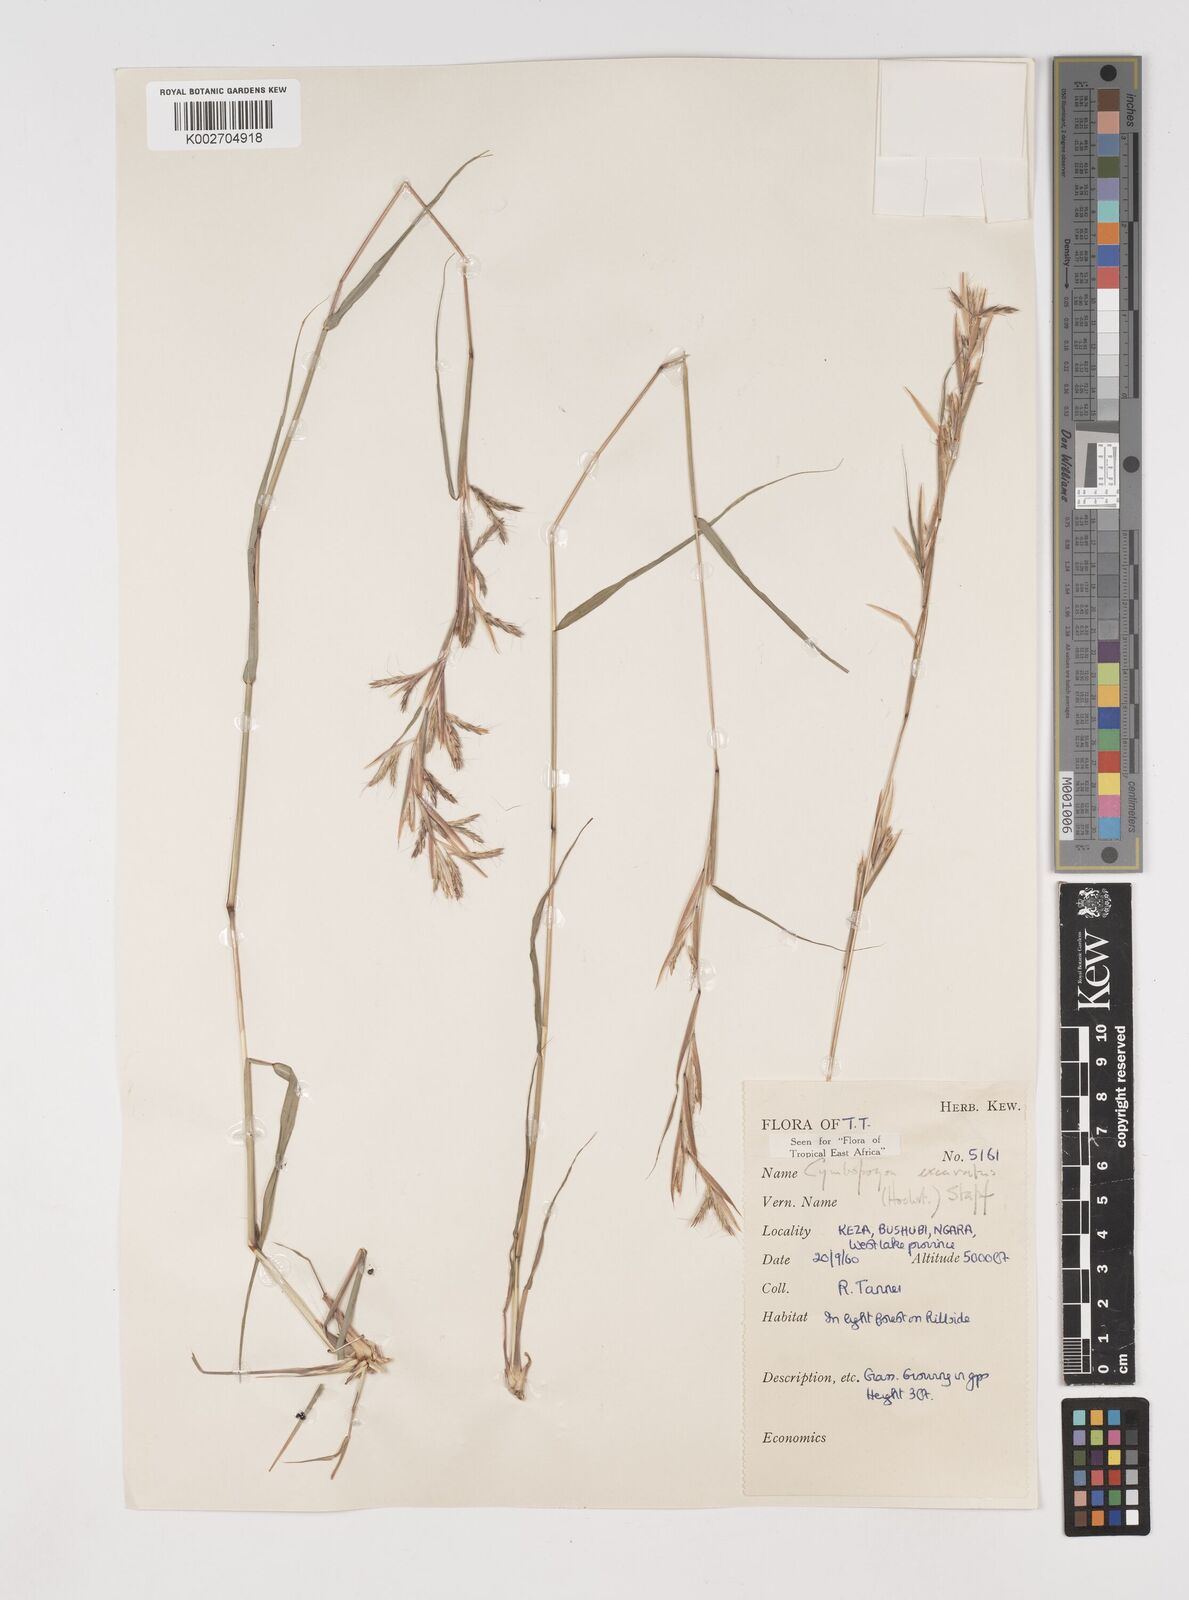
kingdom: Plantae
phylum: Tracheophyta
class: Liliopsida
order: Poales
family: Poaceae
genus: Cymbopogon
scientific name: Cymbopogon caesius
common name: Kachi grass
